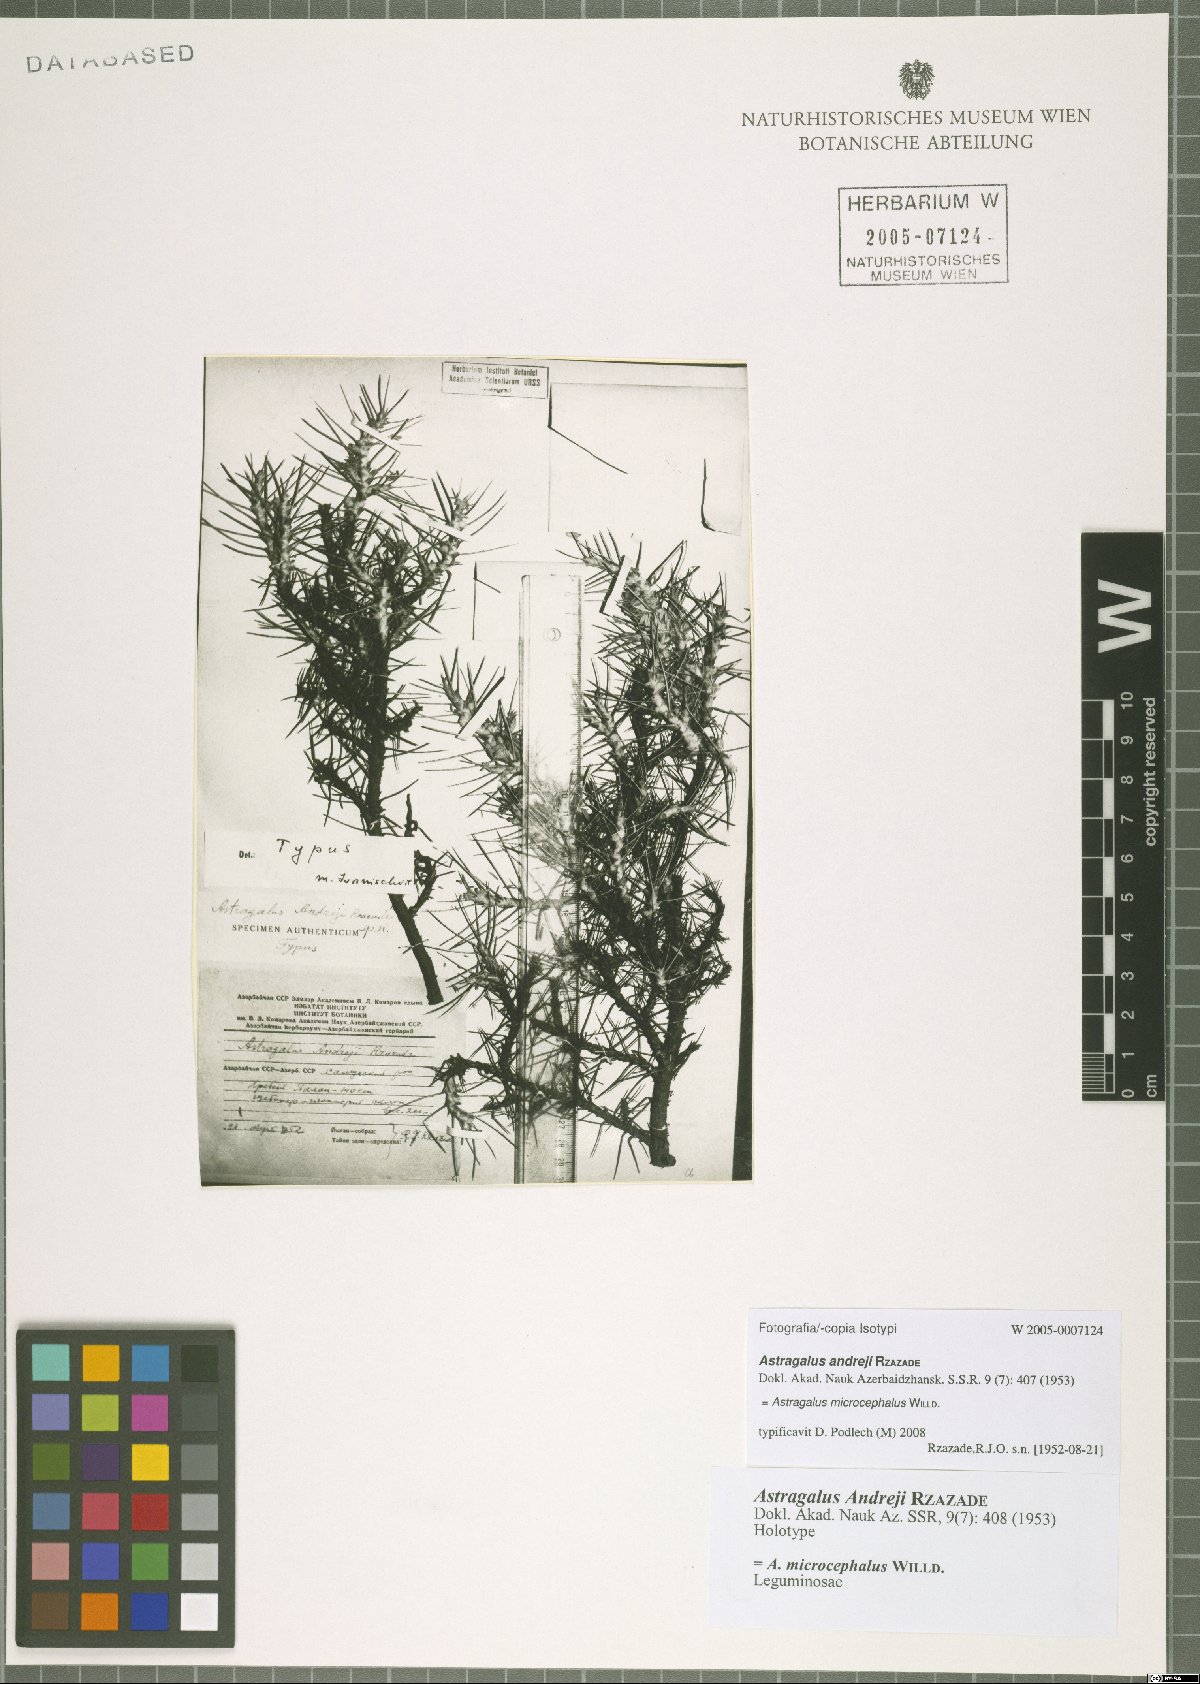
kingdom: Plantae
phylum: Tracheophyta
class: Magnoliopsida
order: Fabales
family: Fabaceae
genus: Astragalus
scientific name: Astragalus microcephalus
